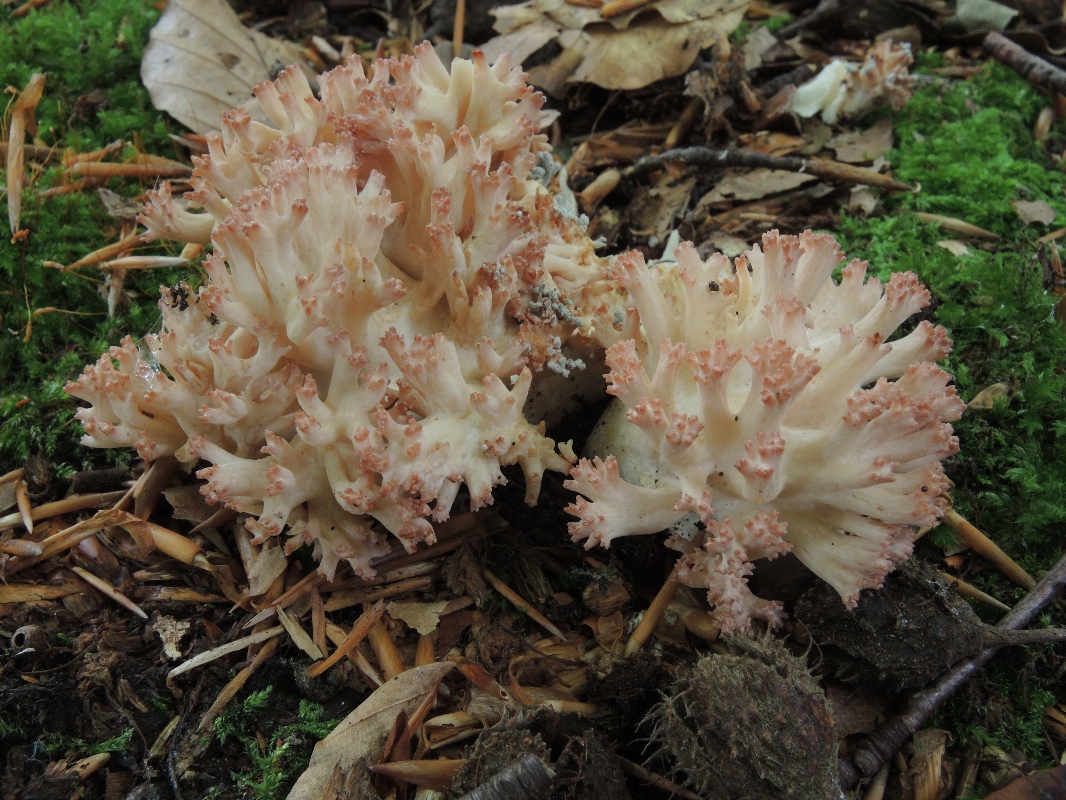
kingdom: Fungi
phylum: Basidiomycota
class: Agaricomycetes
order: Gomphales
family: Gomphaceae
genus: Ramaria
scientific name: Ramaria botrytis
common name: drue-koralsvamp
